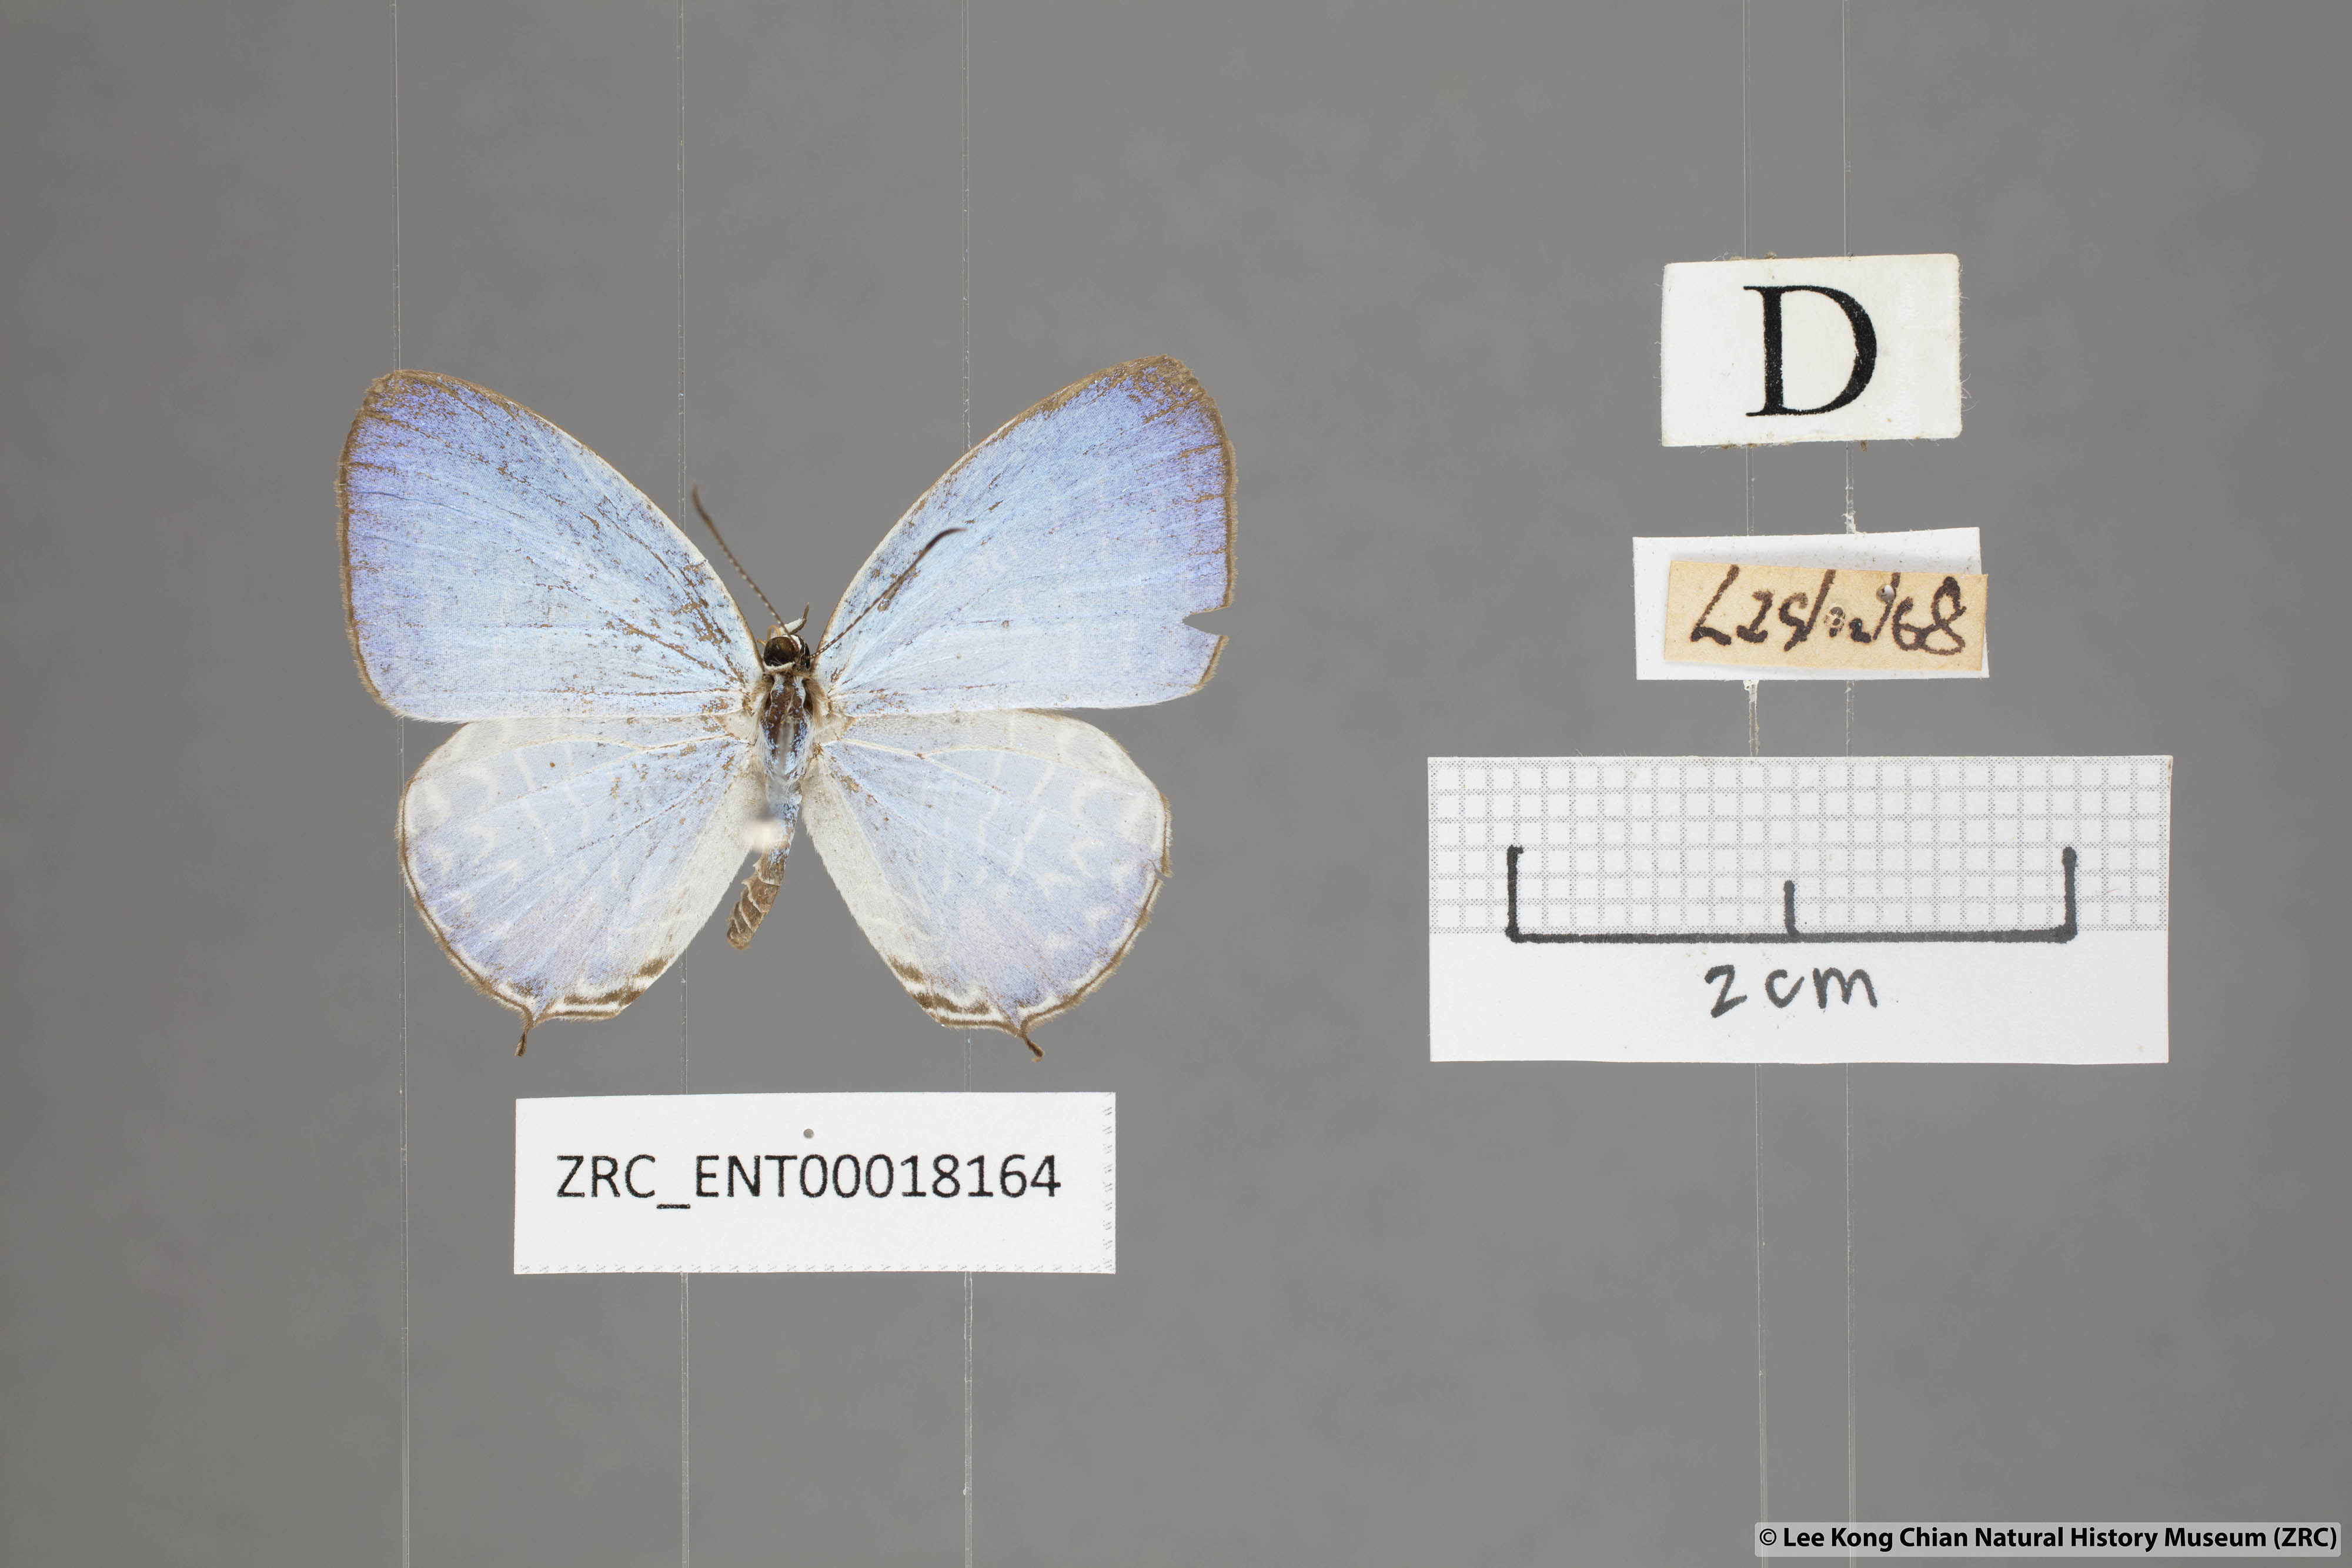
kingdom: Animalia
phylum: Arthropoda
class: Insecta
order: Lepidoptera
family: Lycaenidae
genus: Jamides
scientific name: Jamides
